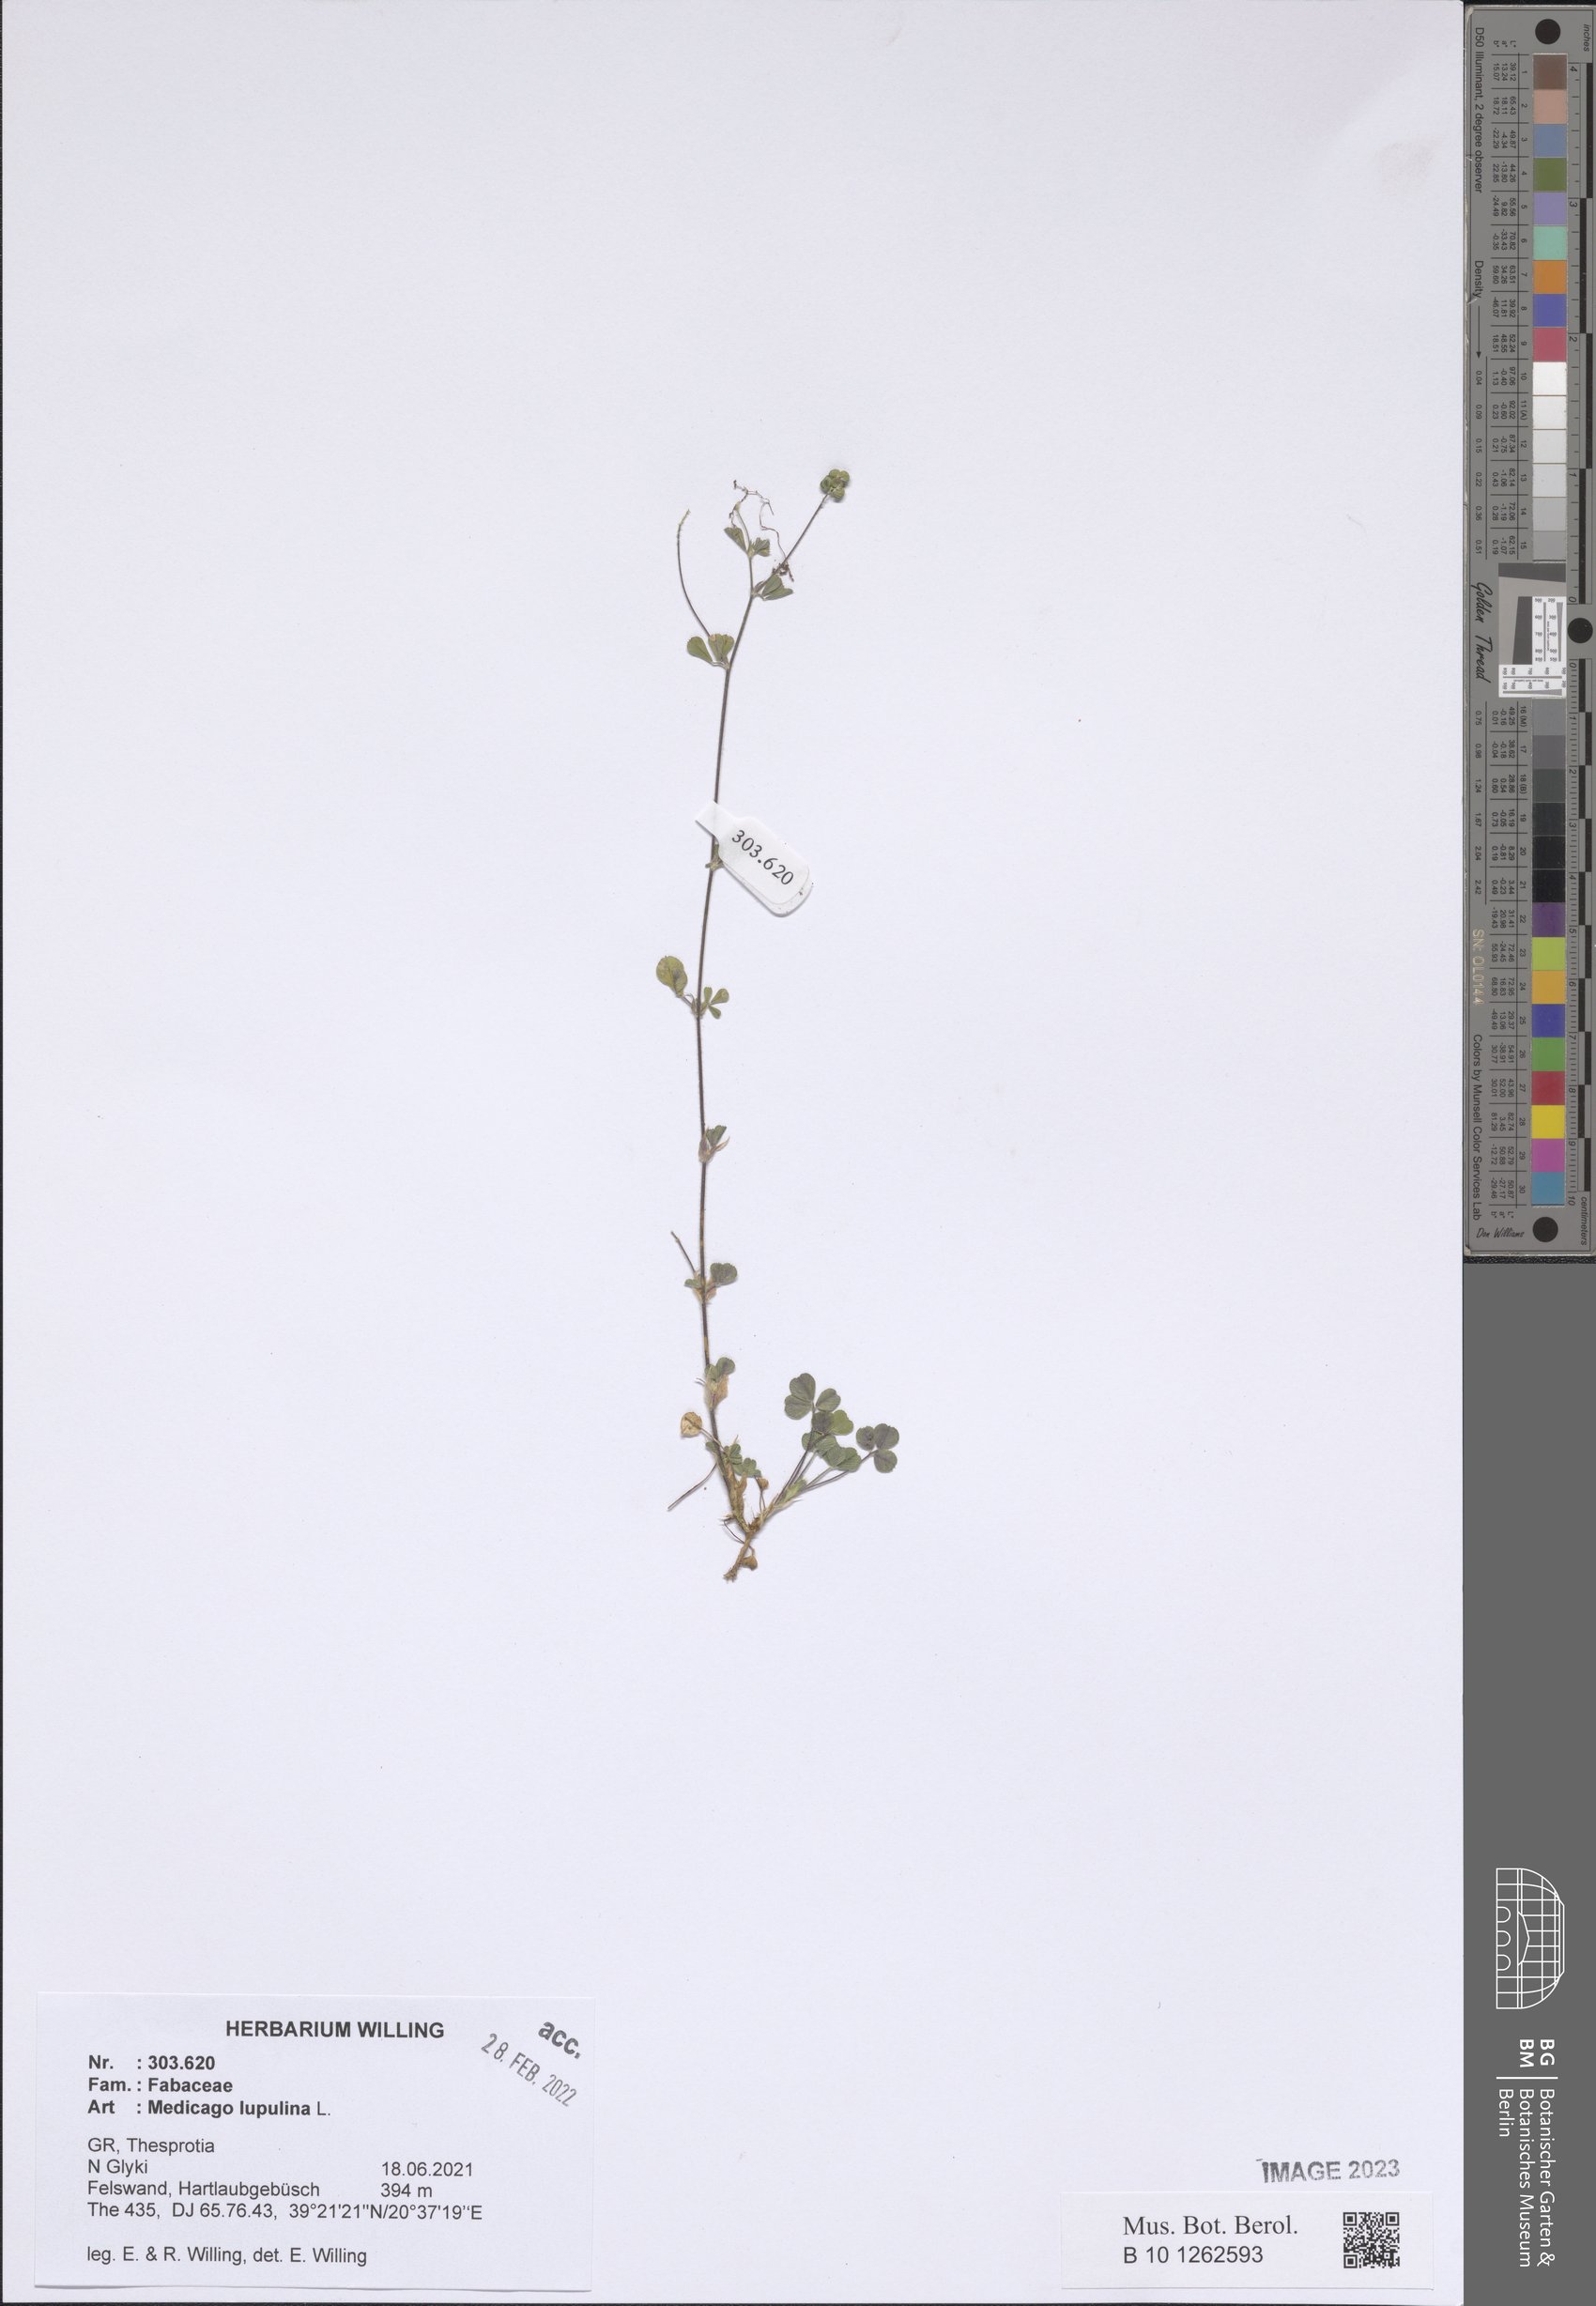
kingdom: Plantae
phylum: Tracheophyta
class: Magnoliopsida
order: Fabales
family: Fabaceae
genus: Medicago
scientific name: Medicago lupulina
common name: Black medick
